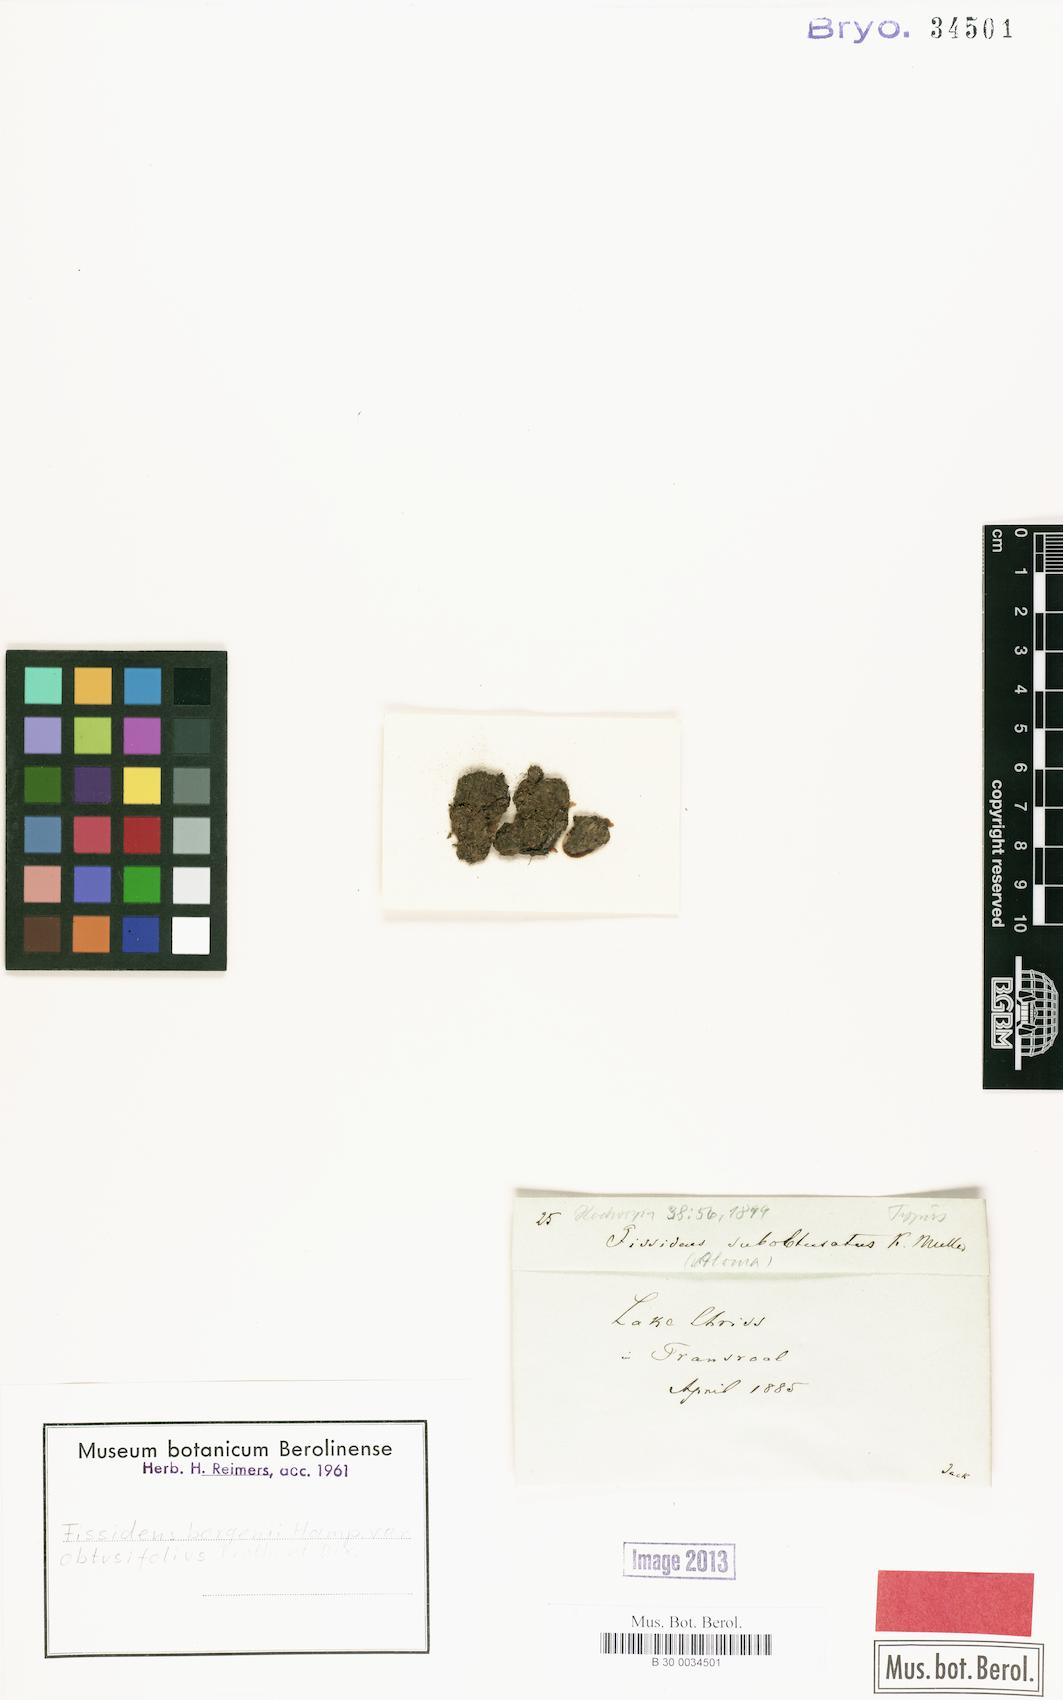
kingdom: Plantae
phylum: Bryophyta
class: Bryopsida
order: Dicranales
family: Fissidentaceae
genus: Fissidens
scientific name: Fissidens borgenii
